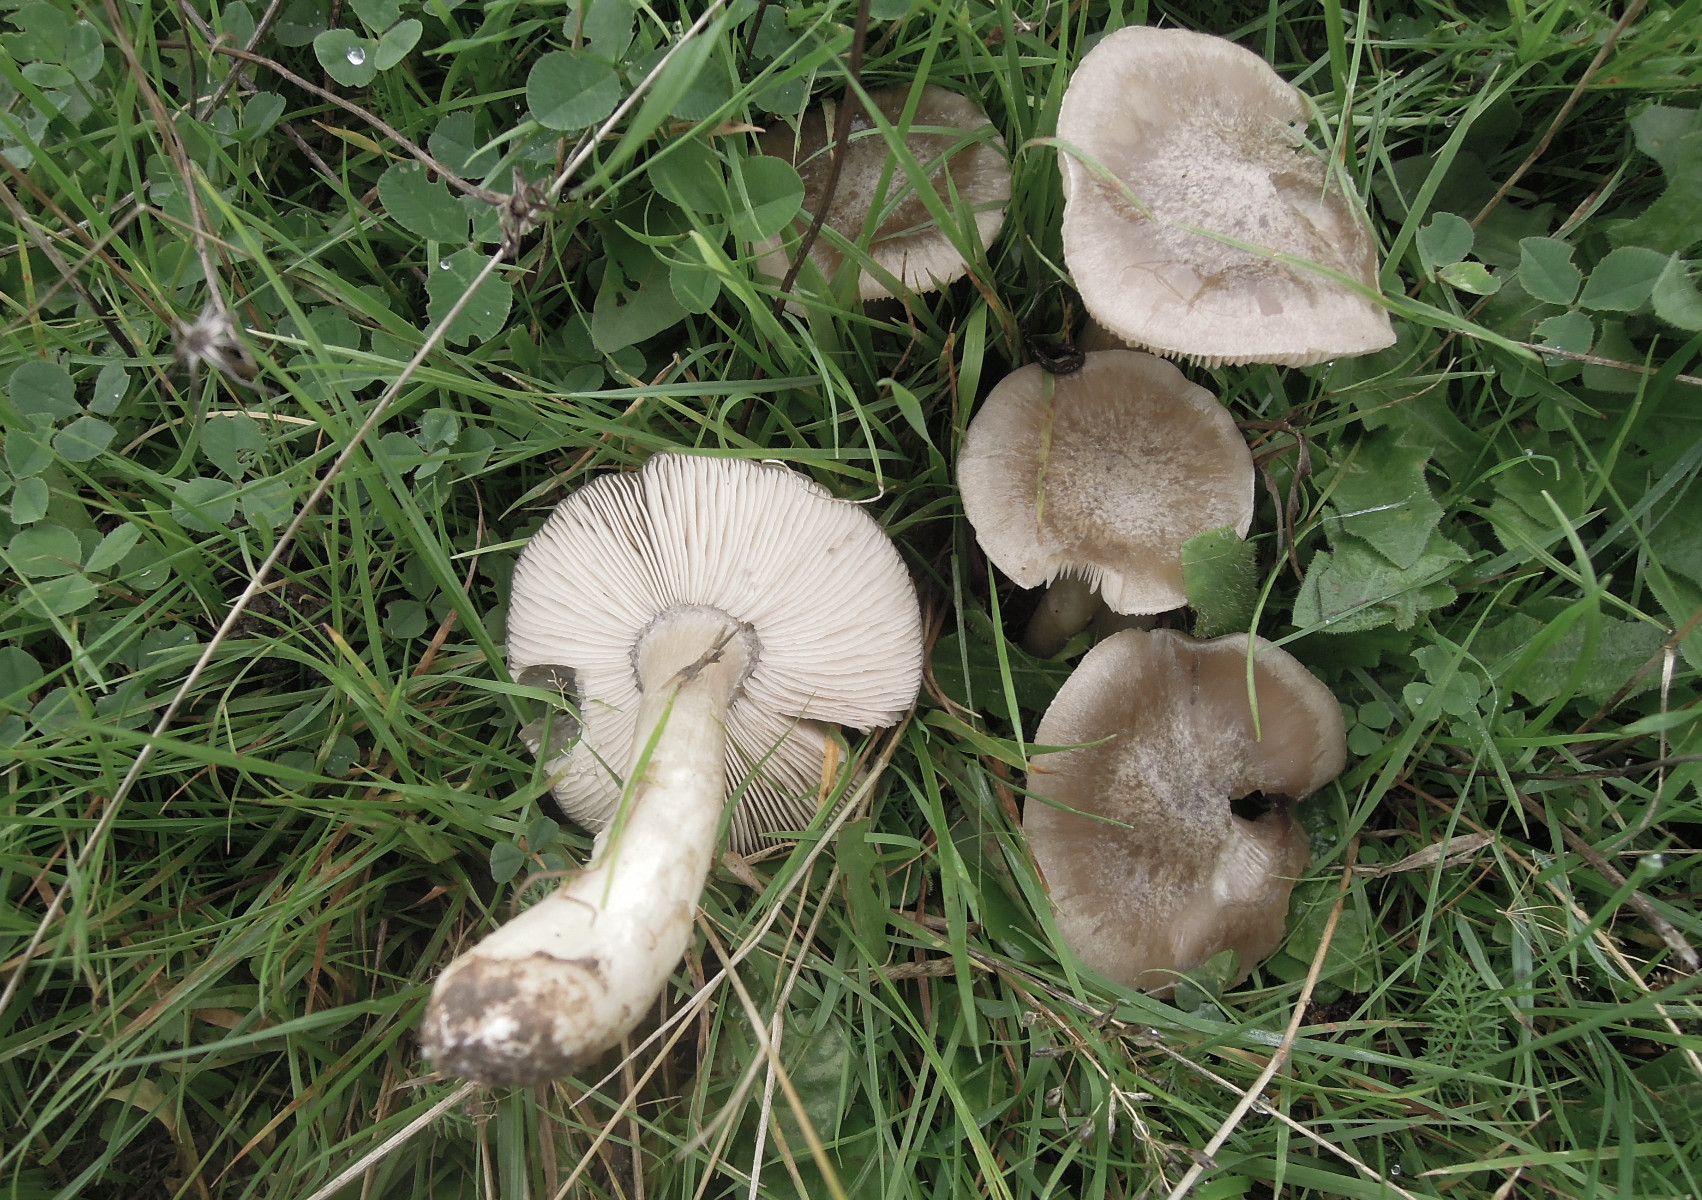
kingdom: Fungi
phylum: Basidiomycota
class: Agaricomycetes
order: Agaricales
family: Entolomataceae
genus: Entoloma
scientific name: Entoloma prunuloides
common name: mel-rødblad
